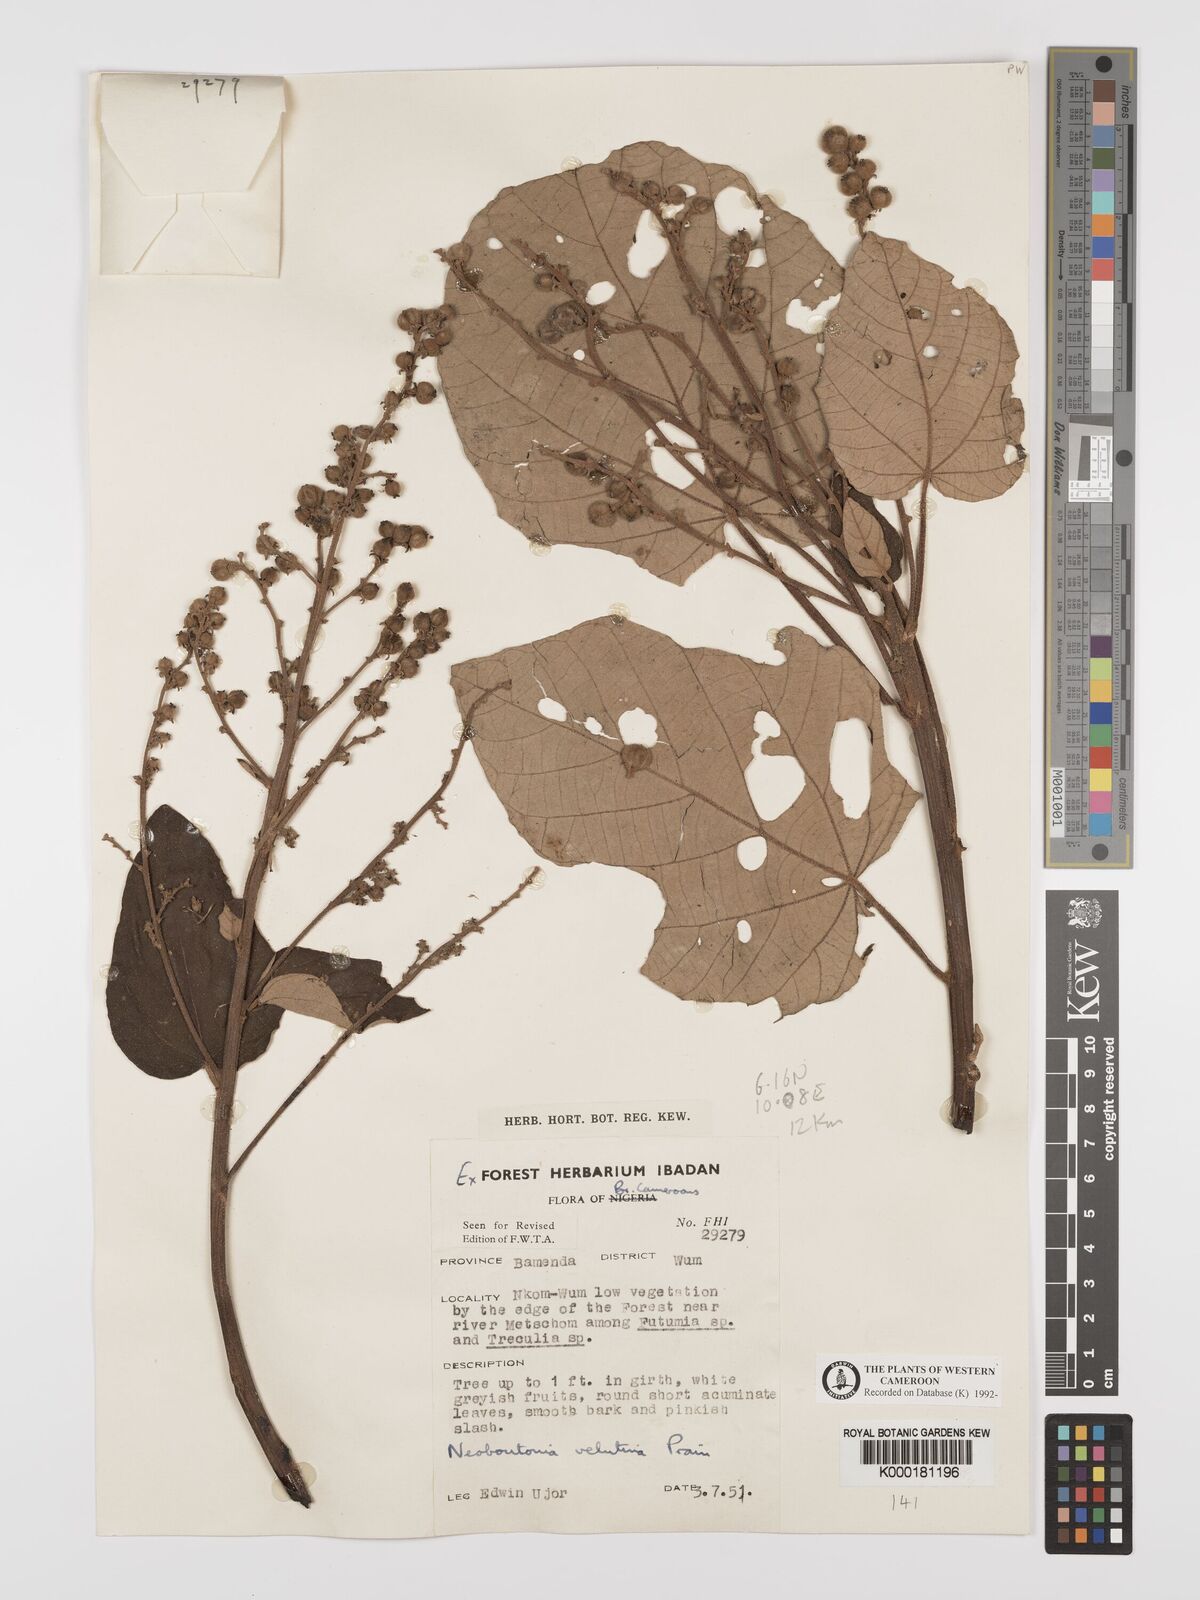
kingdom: Plantae
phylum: Tracheophyta
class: Magnoliopsida
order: Malpighiales
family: Euphorbiaceae
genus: Neoboutonia
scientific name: Neoboutonia
